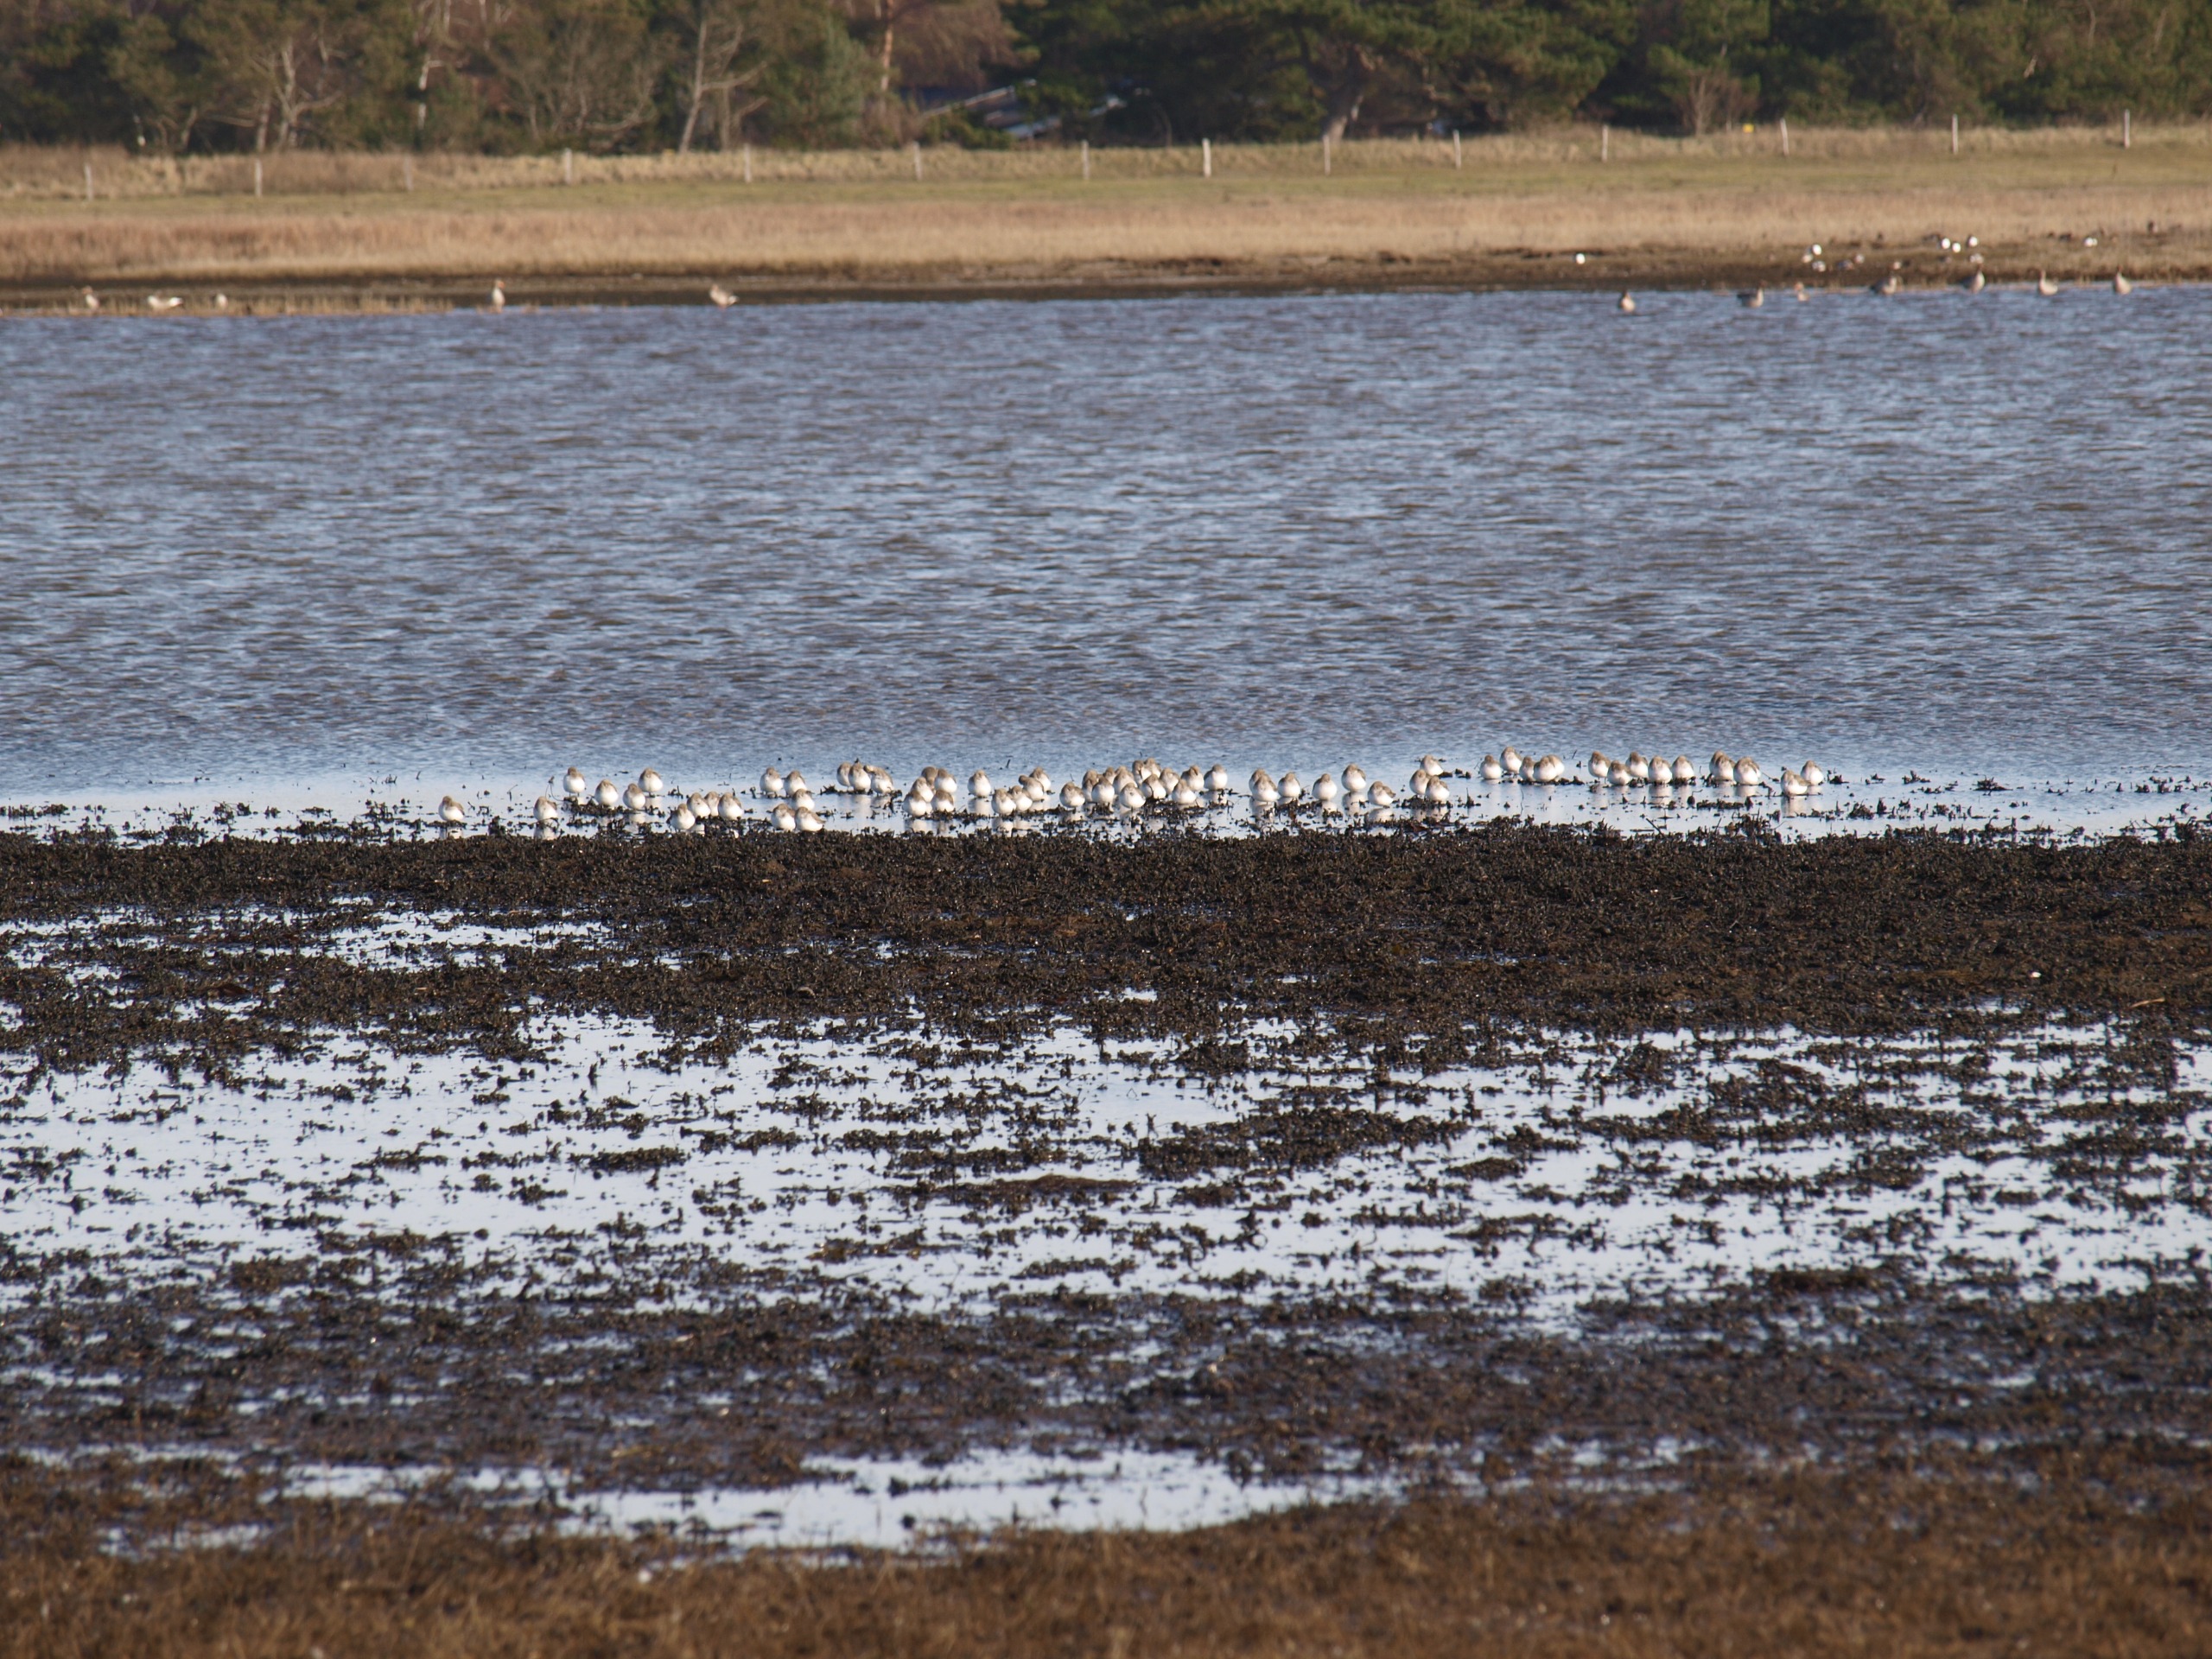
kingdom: Animalia
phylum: Chordata
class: Aves
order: Charadriiformes
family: Scolopacidae
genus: Calidris
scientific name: Calidris alpina
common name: Almindelig ryle
